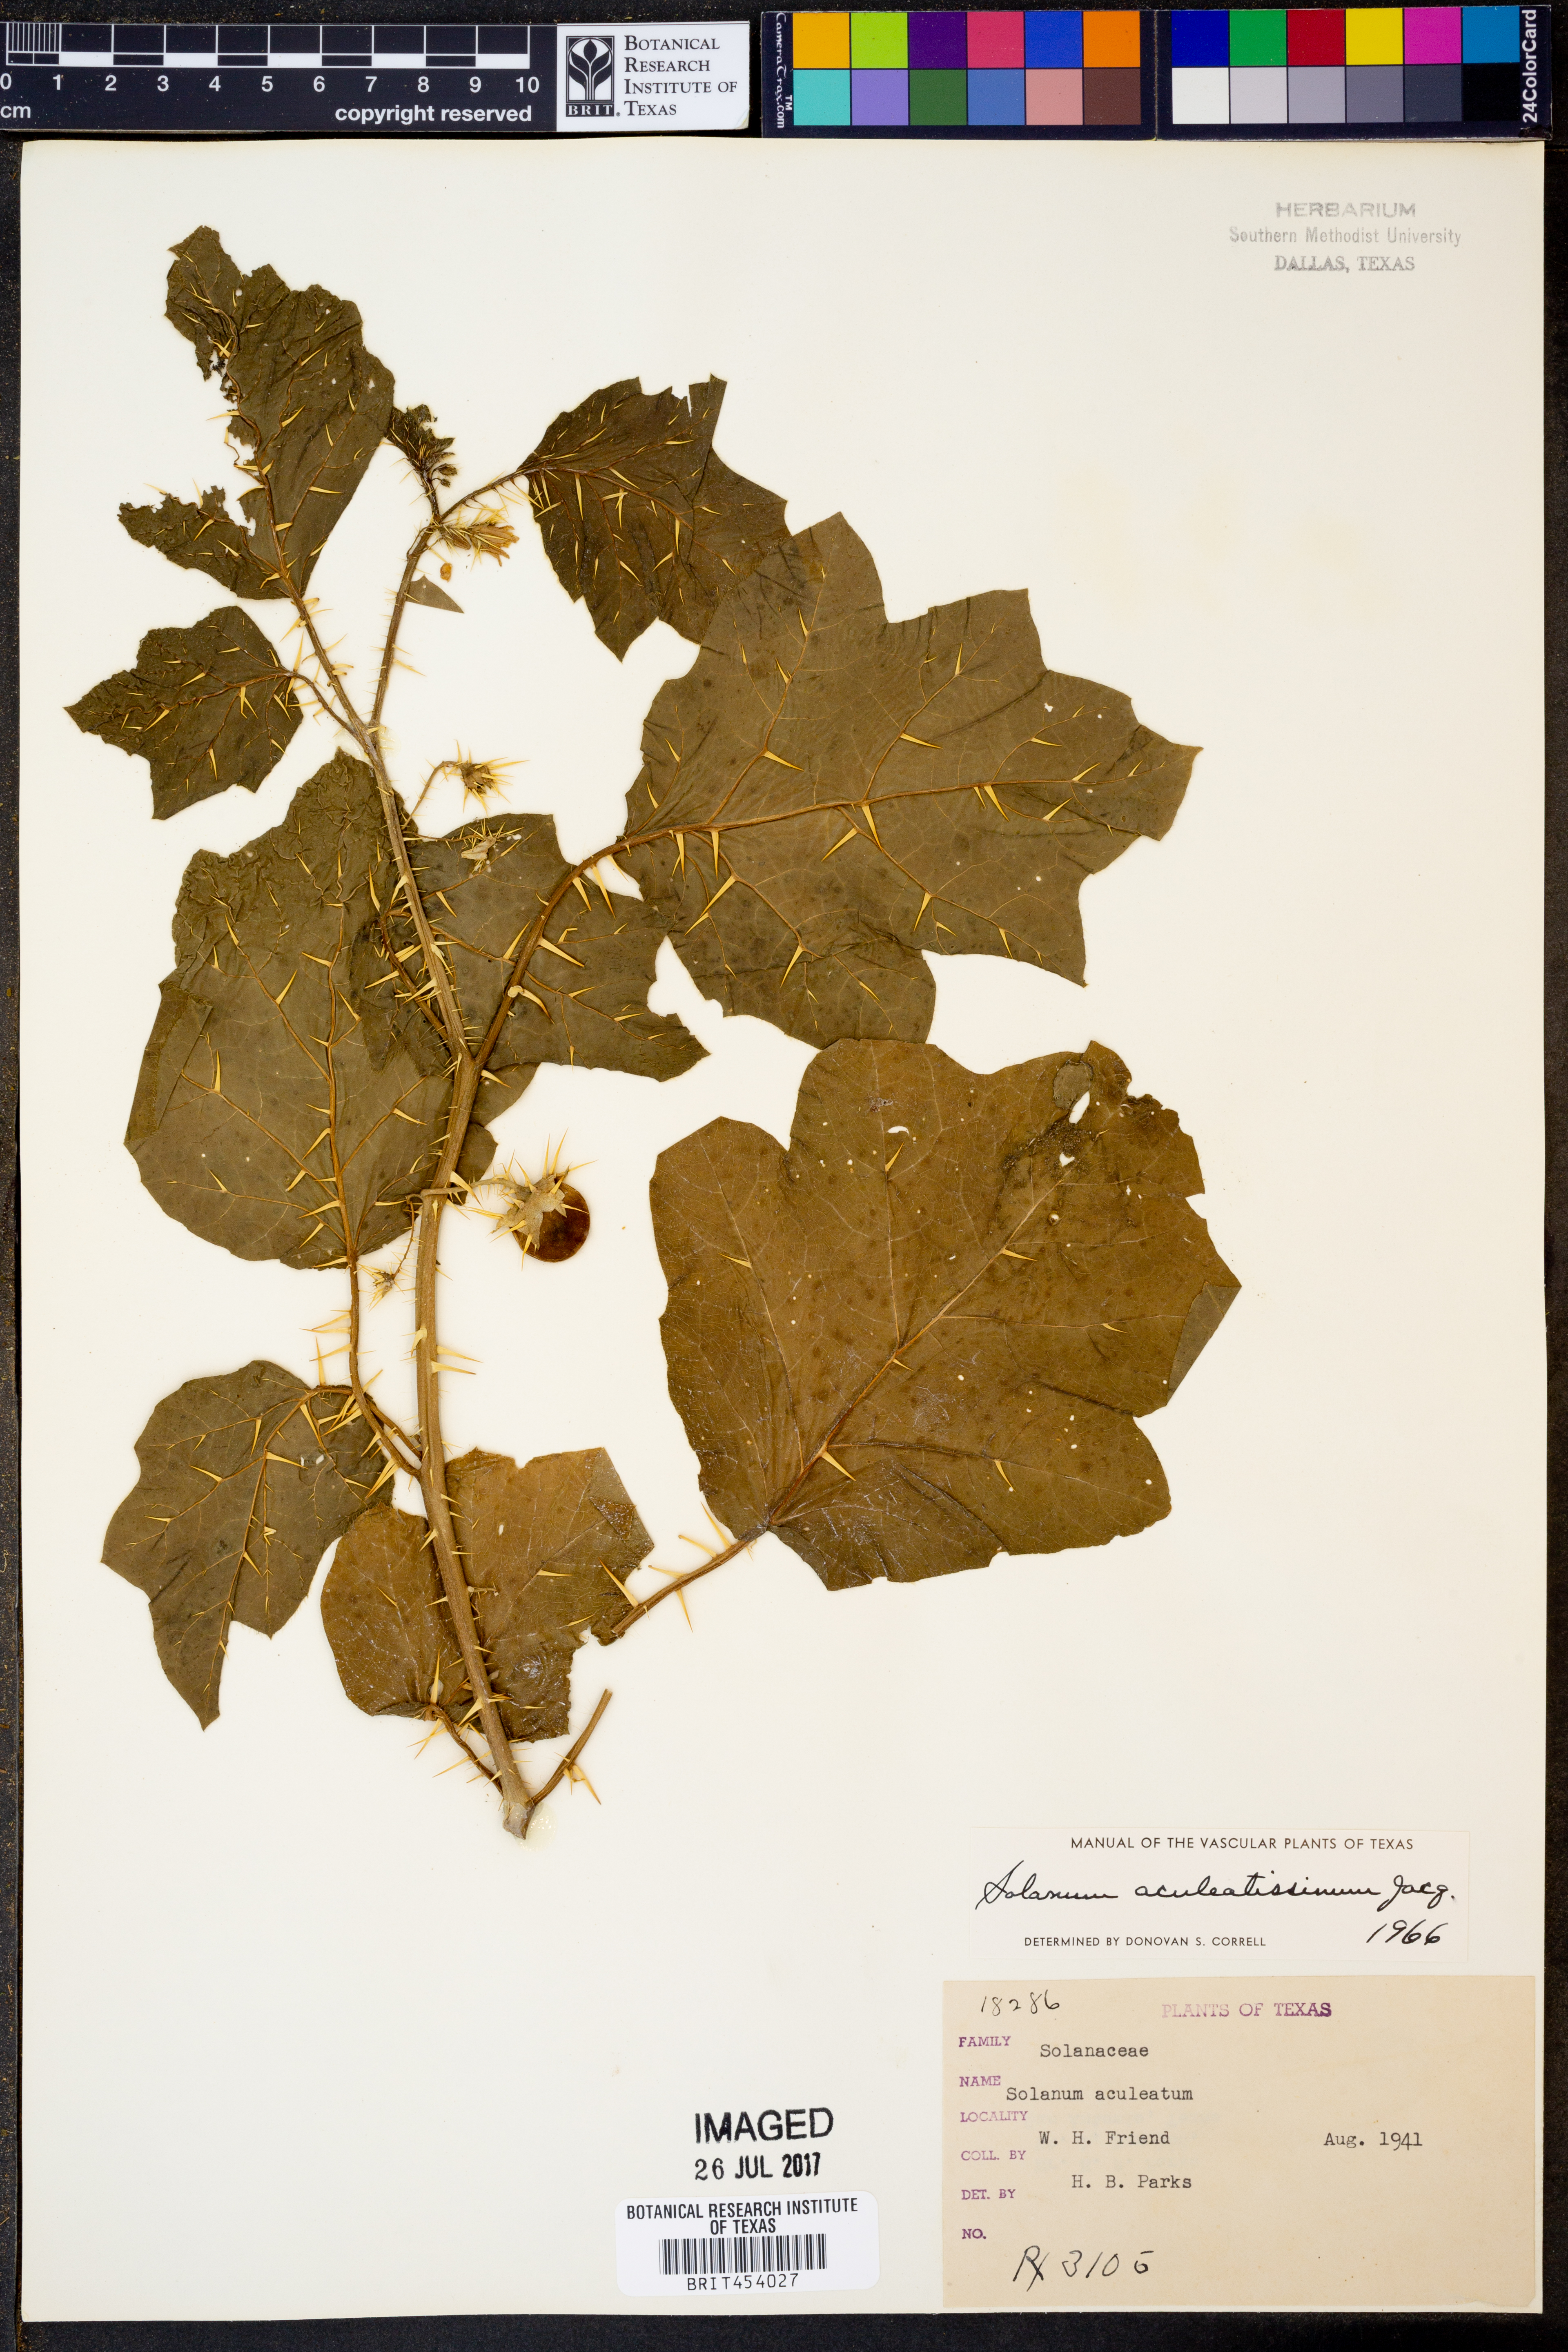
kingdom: Plantae
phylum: Tracheophyta
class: Magnoliopsida
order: Solanales
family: Solanaceae
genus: Solanum
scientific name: Solanum aculeatissimum
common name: Dutch eggplant
